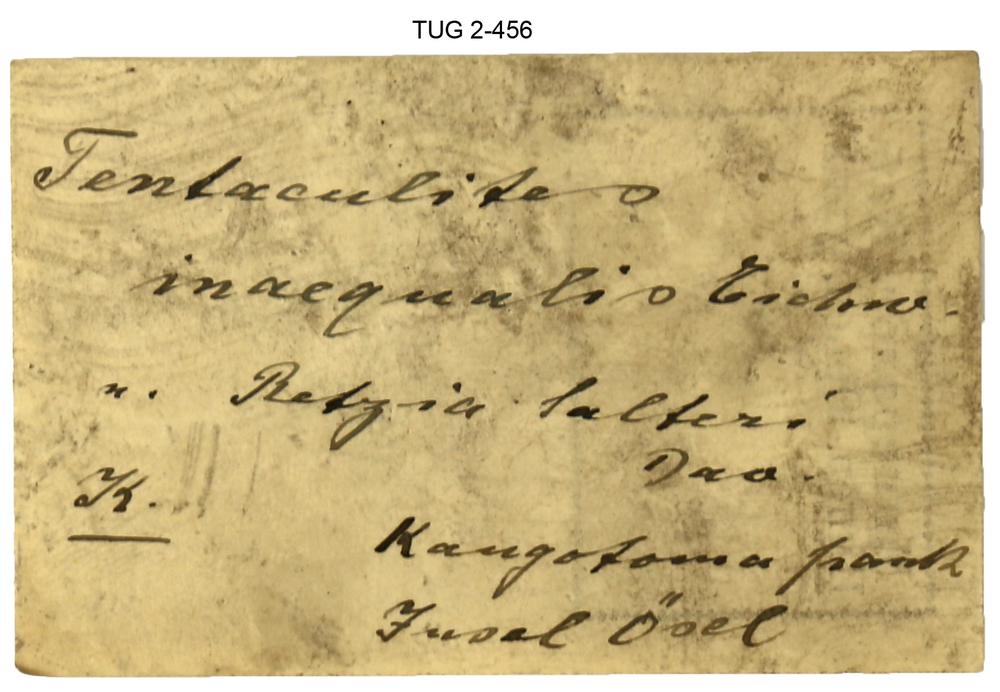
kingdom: Animalia
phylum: Mollusca
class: Cricoconarida
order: Tentaculitida
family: Tentaculitidae
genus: Tentaculites
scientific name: Tentaculites
